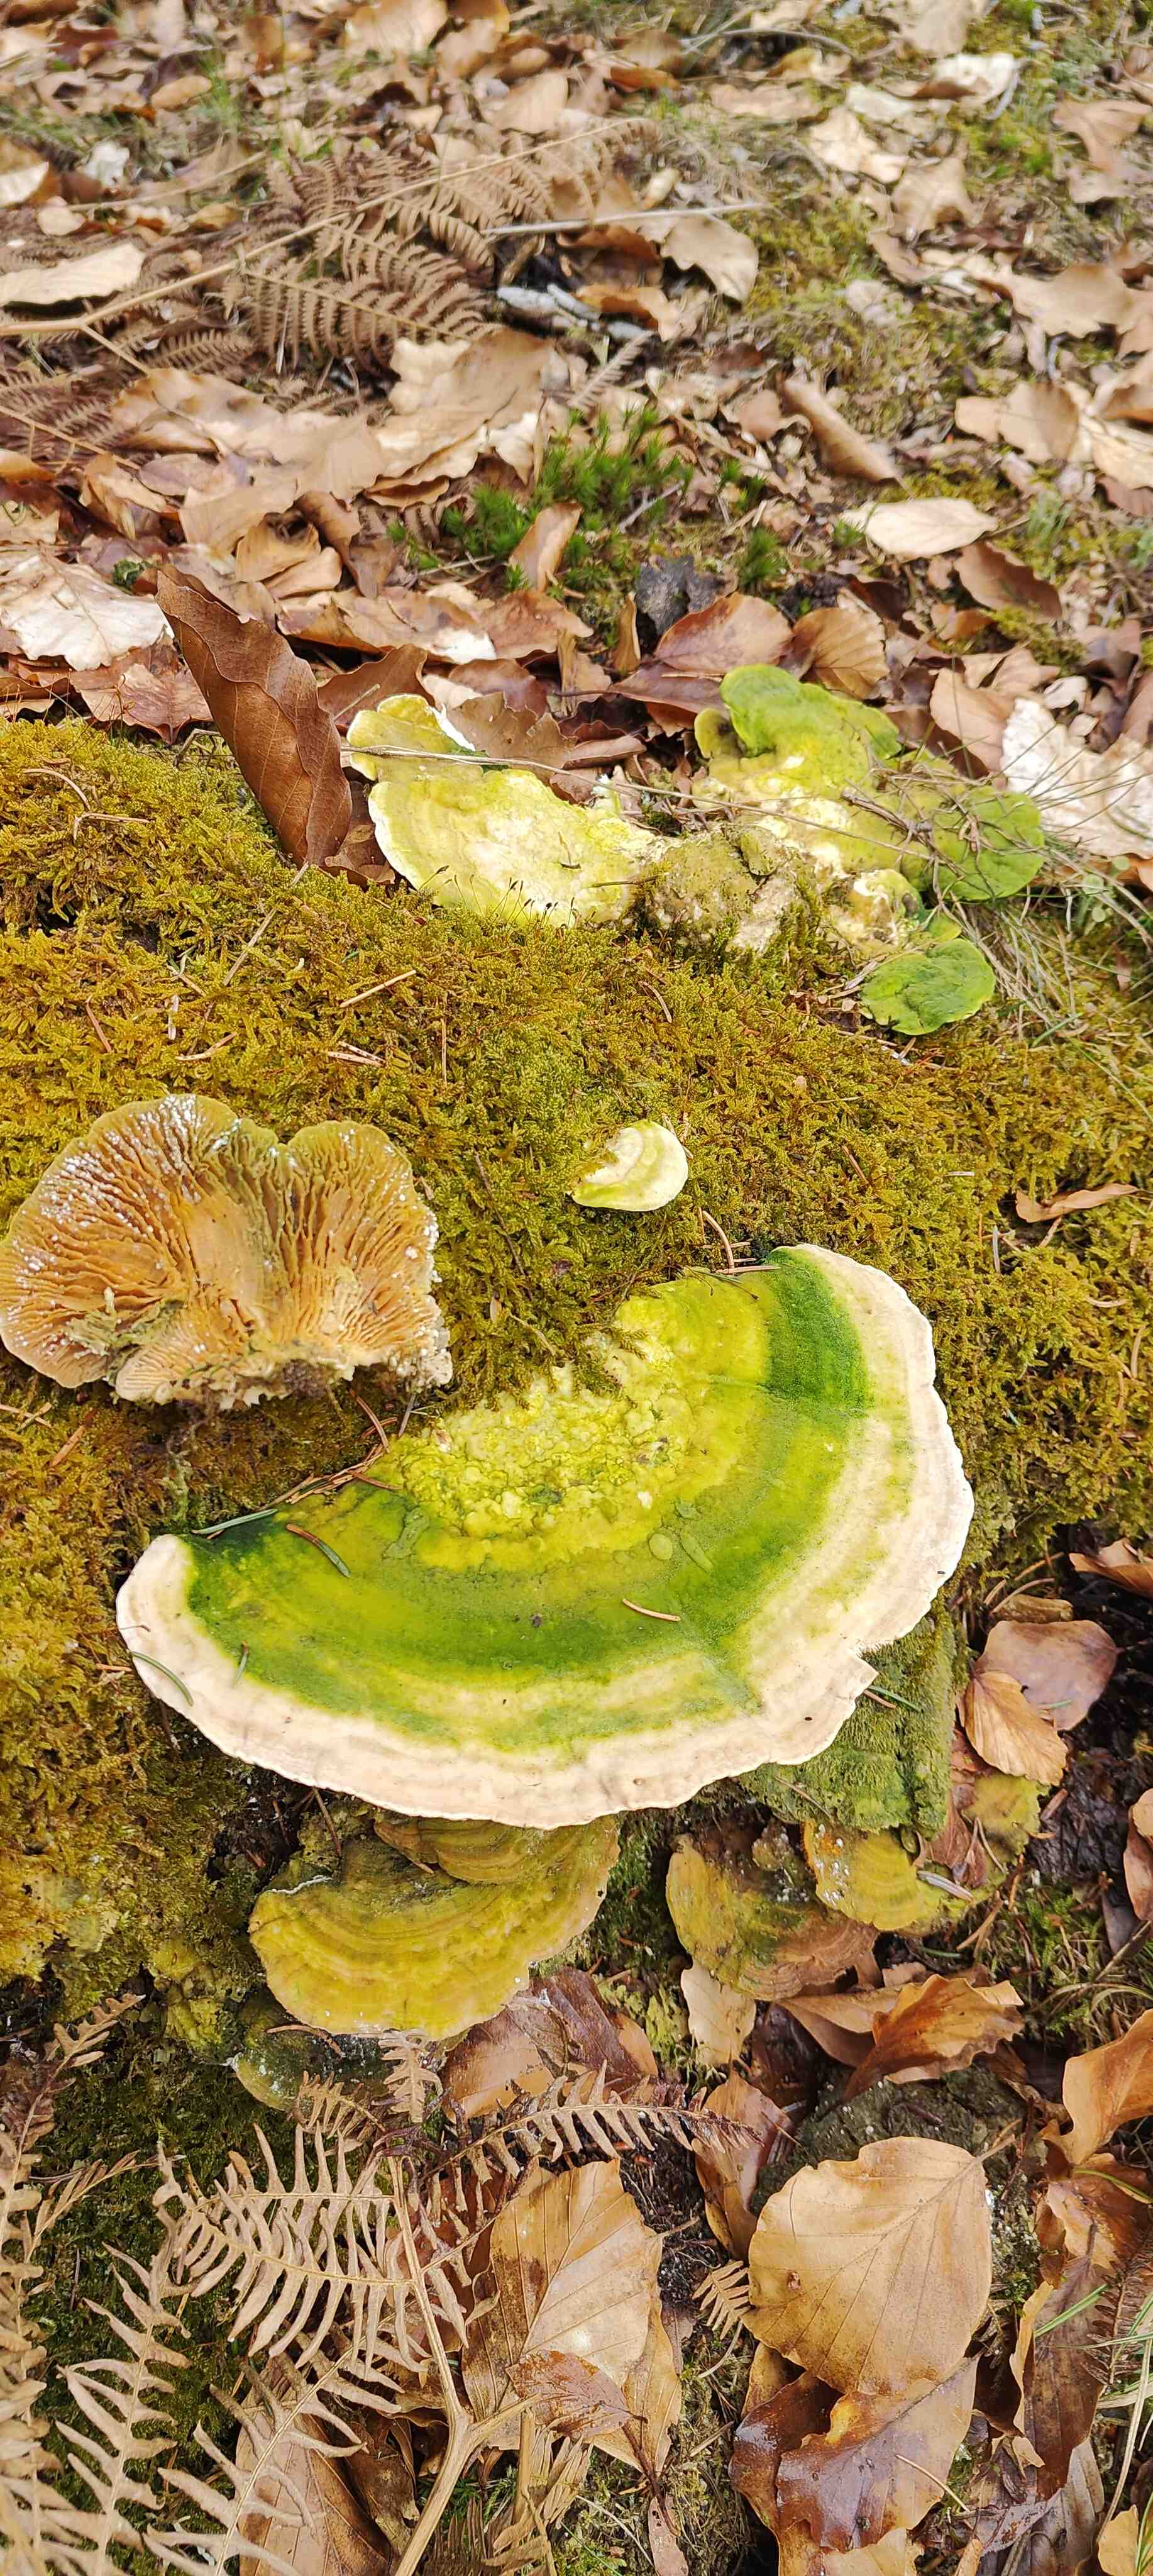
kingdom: Fungi
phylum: Basidiomycota
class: Agaricomycetes
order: Polyporales
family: Polyporaceae
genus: Lenzites
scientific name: Lenzites betulinus
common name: birke-læderporesvamp
